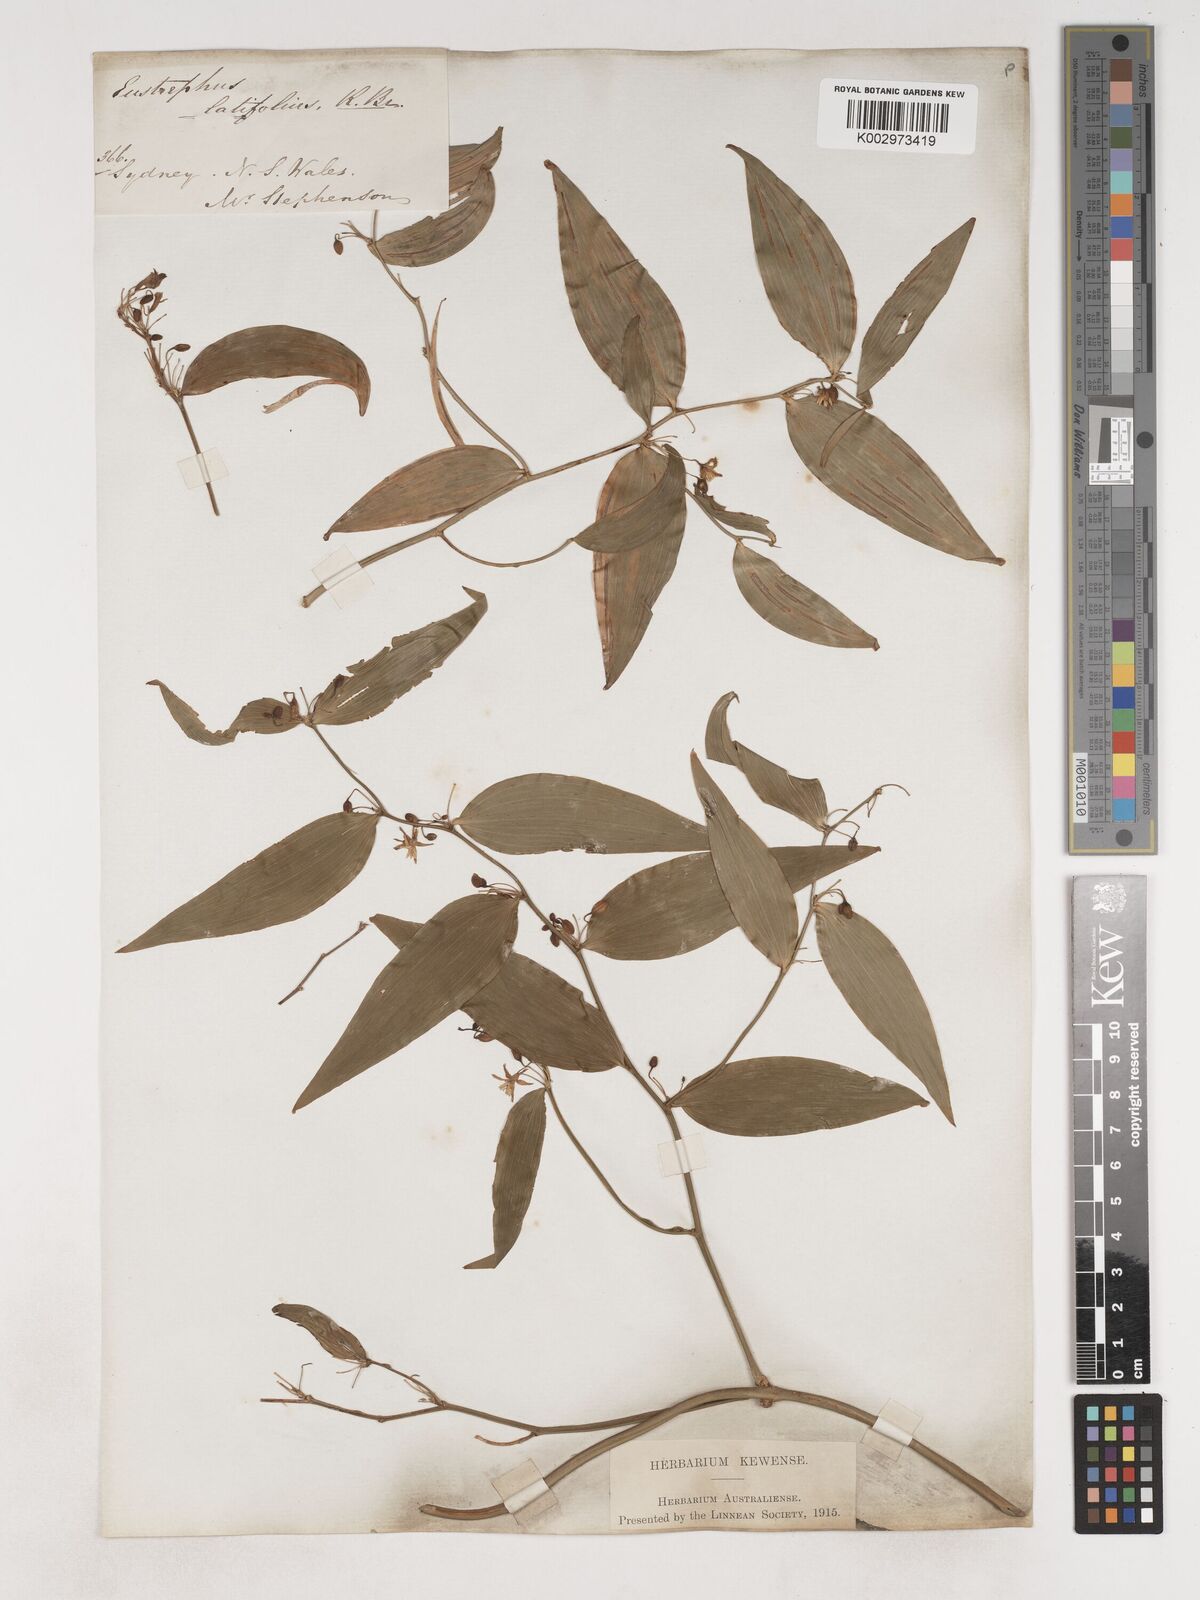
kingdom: Plantae
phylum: Tracheophyta
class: Liliopsida
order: Asparagales
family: Asparagaceae
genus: Eustrephus
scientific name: Eustrephus latifolius
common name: Orangevine
